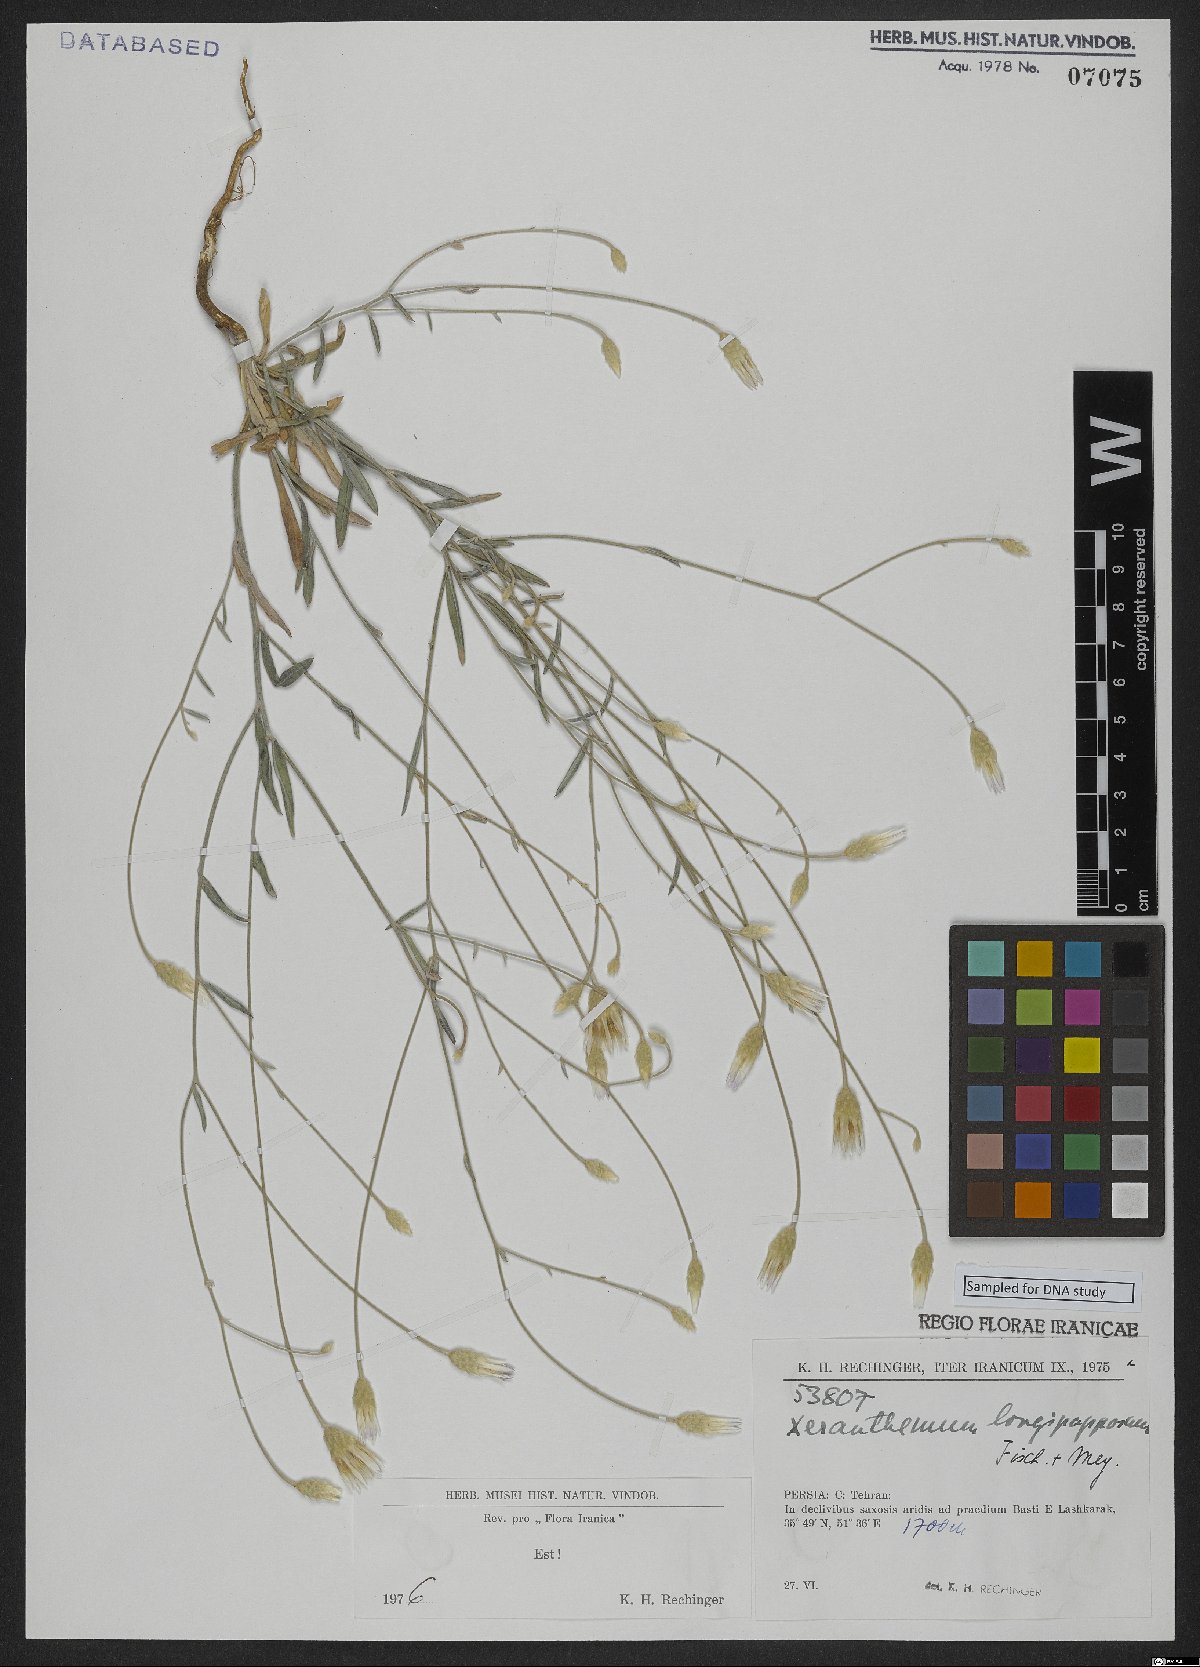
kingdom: Plantae
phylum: Tracheophyta
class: Magnoliopsida
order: Asterales
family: Asteraceae
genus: Xeranthemum
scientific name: Xeranthemum longepapposum
